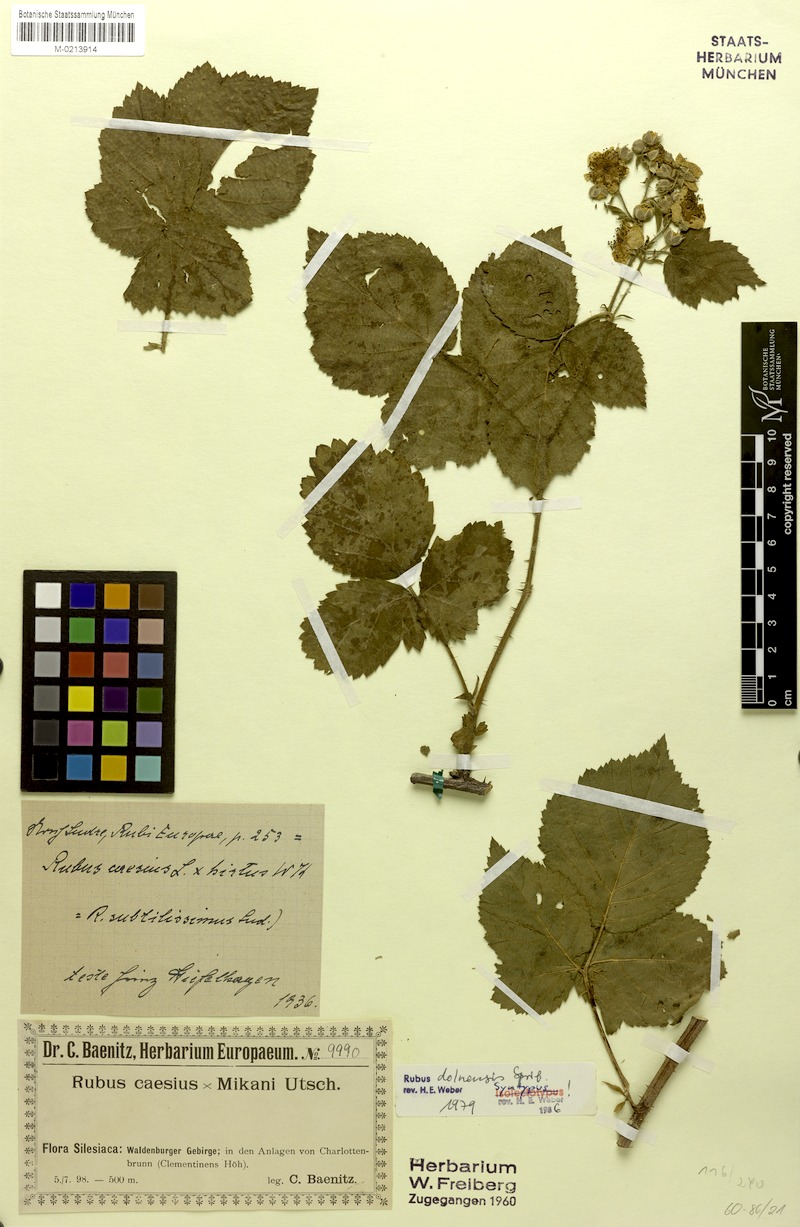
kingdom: Plantae
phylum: Tracheophyta
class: Magnoliopsida
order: Rosales
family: Rosaceae
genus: Rubus
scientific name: Rubus dollnensis
